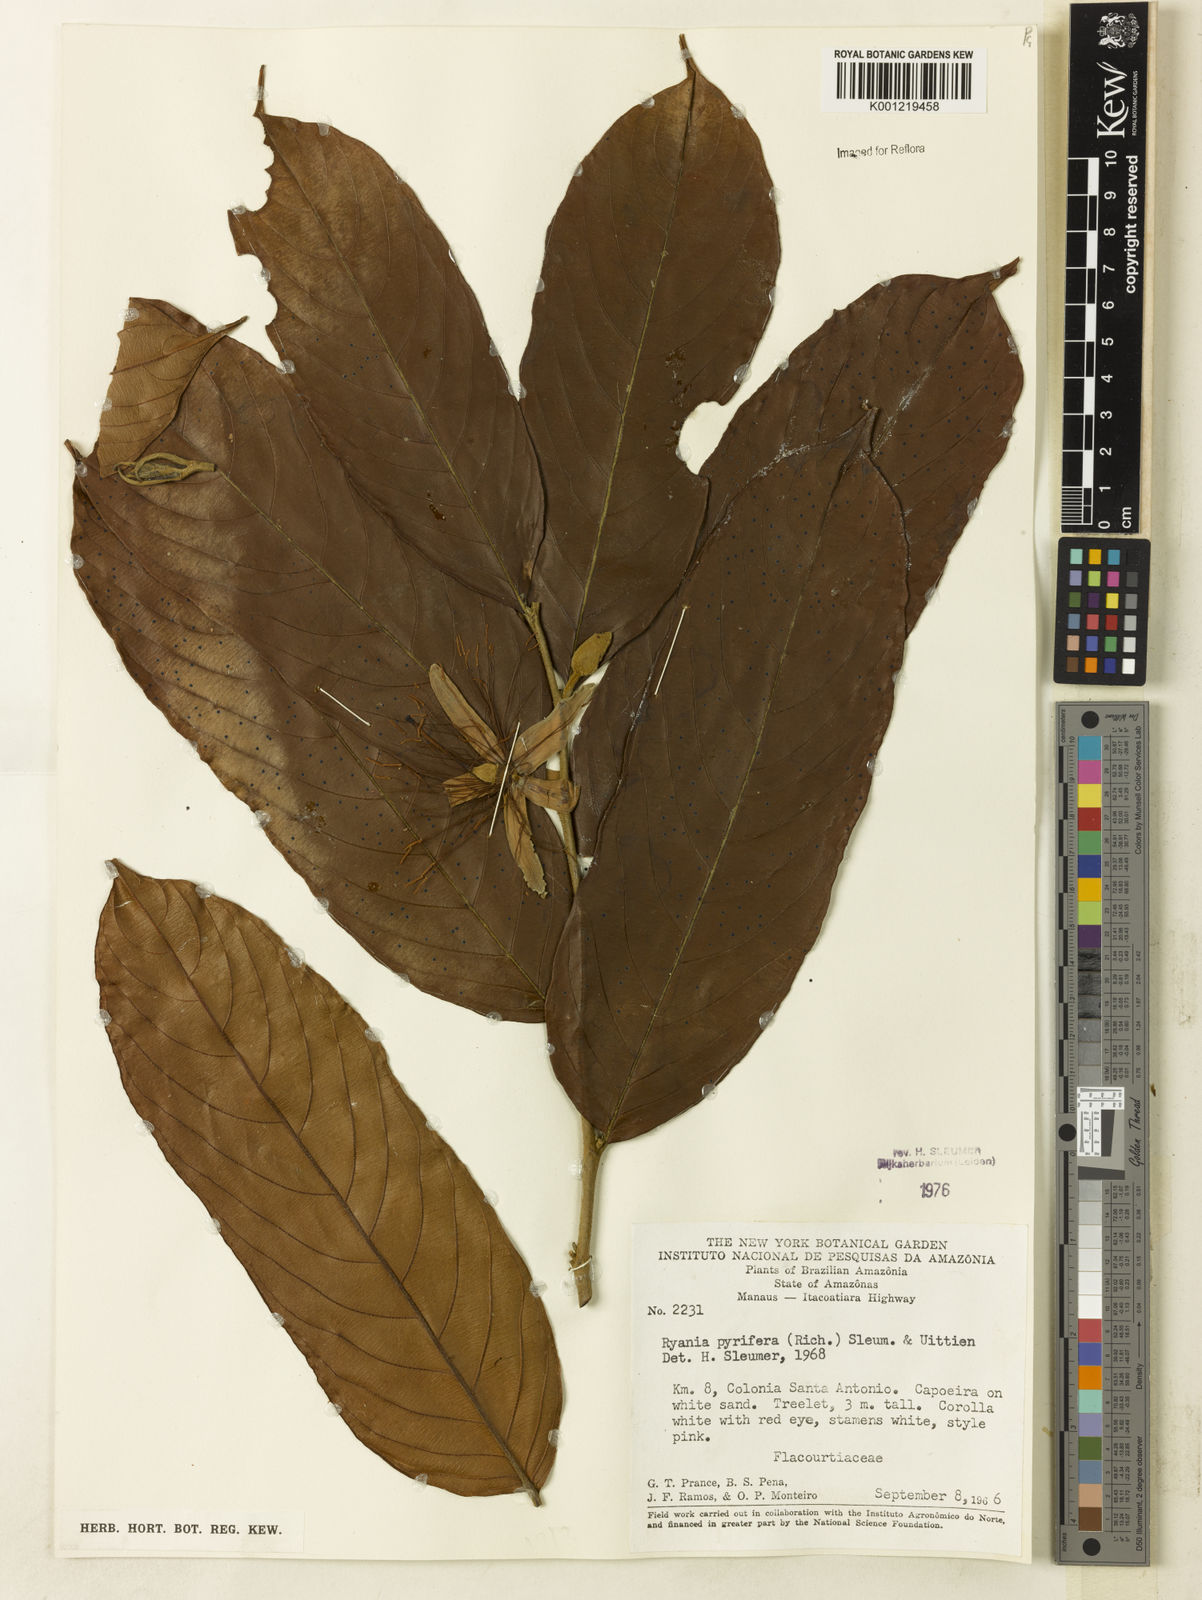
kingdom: Plantae
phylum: Tracheophyta
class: Magnoliopsida
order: Malpighiales
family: Salicaceae
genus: Ryania
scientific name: Ryania pyrifera
